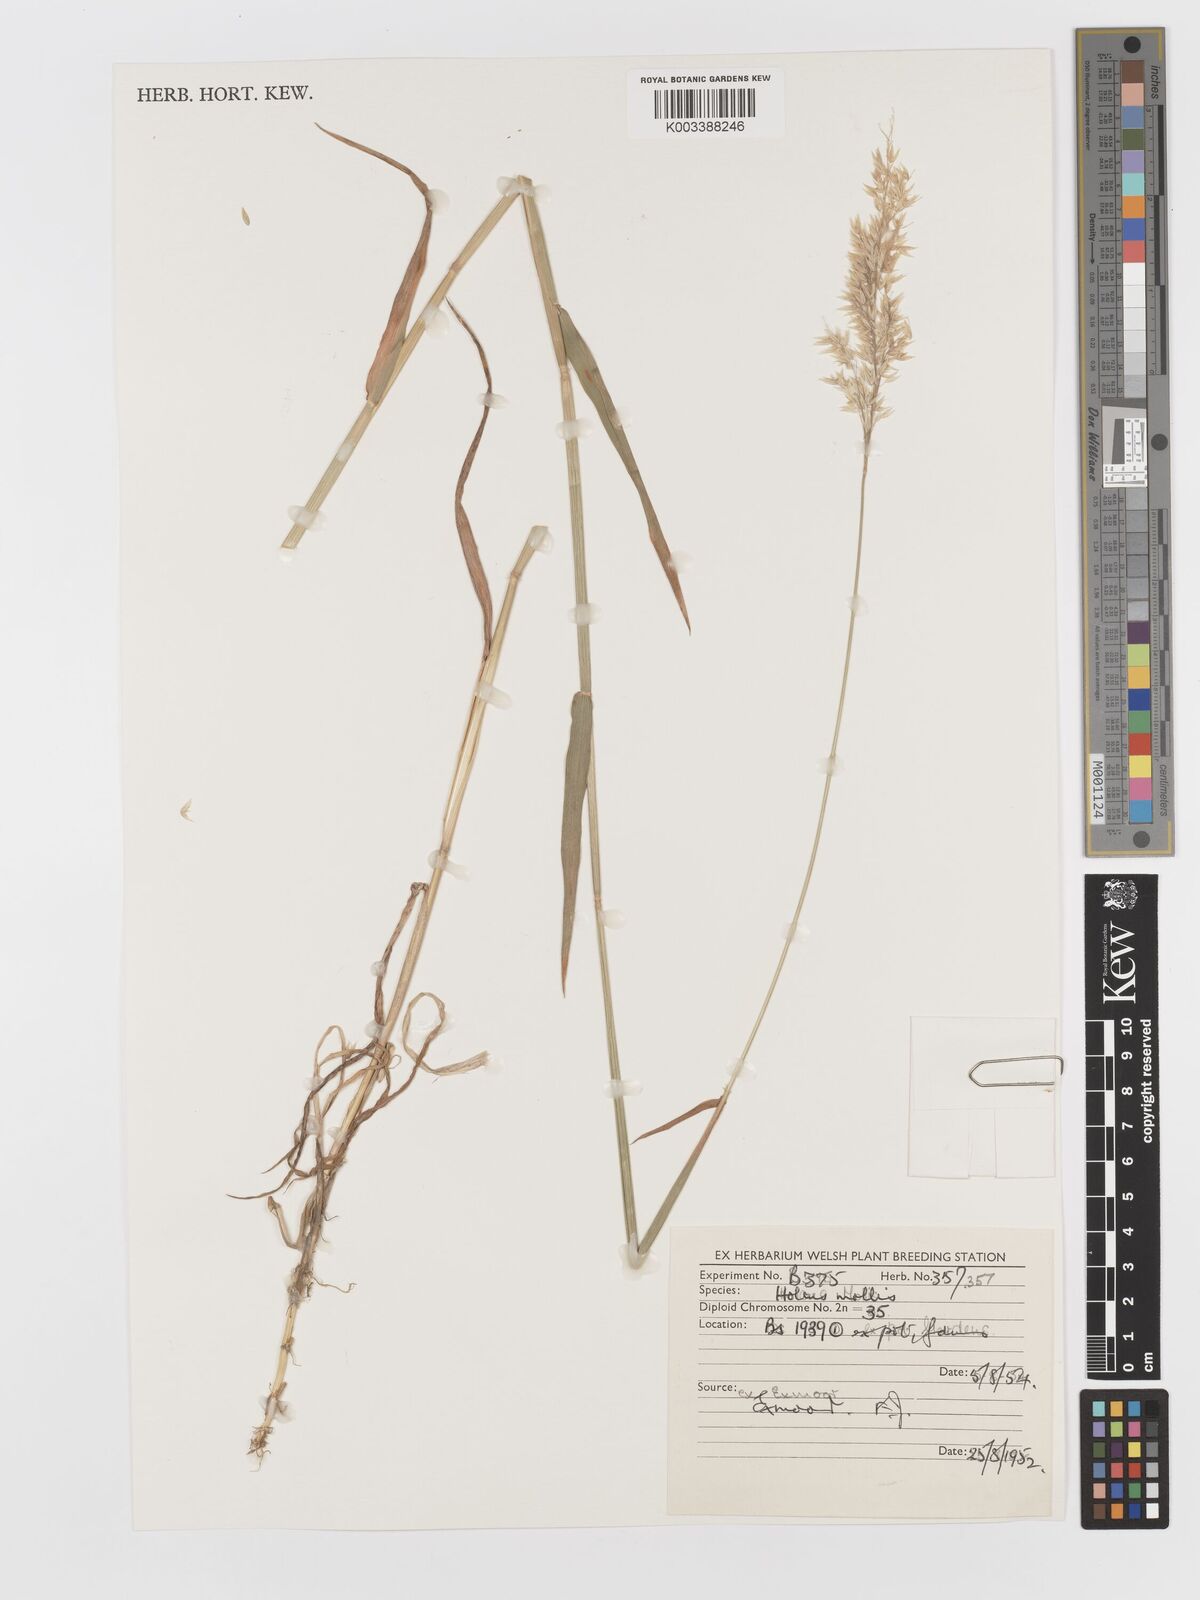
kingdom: Plantae
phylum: Tracheophyta
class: Liliopsida
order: Poales
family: Poaceae
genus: Holcus
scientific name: Holcus mollis
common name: Creeping velvetgrass
